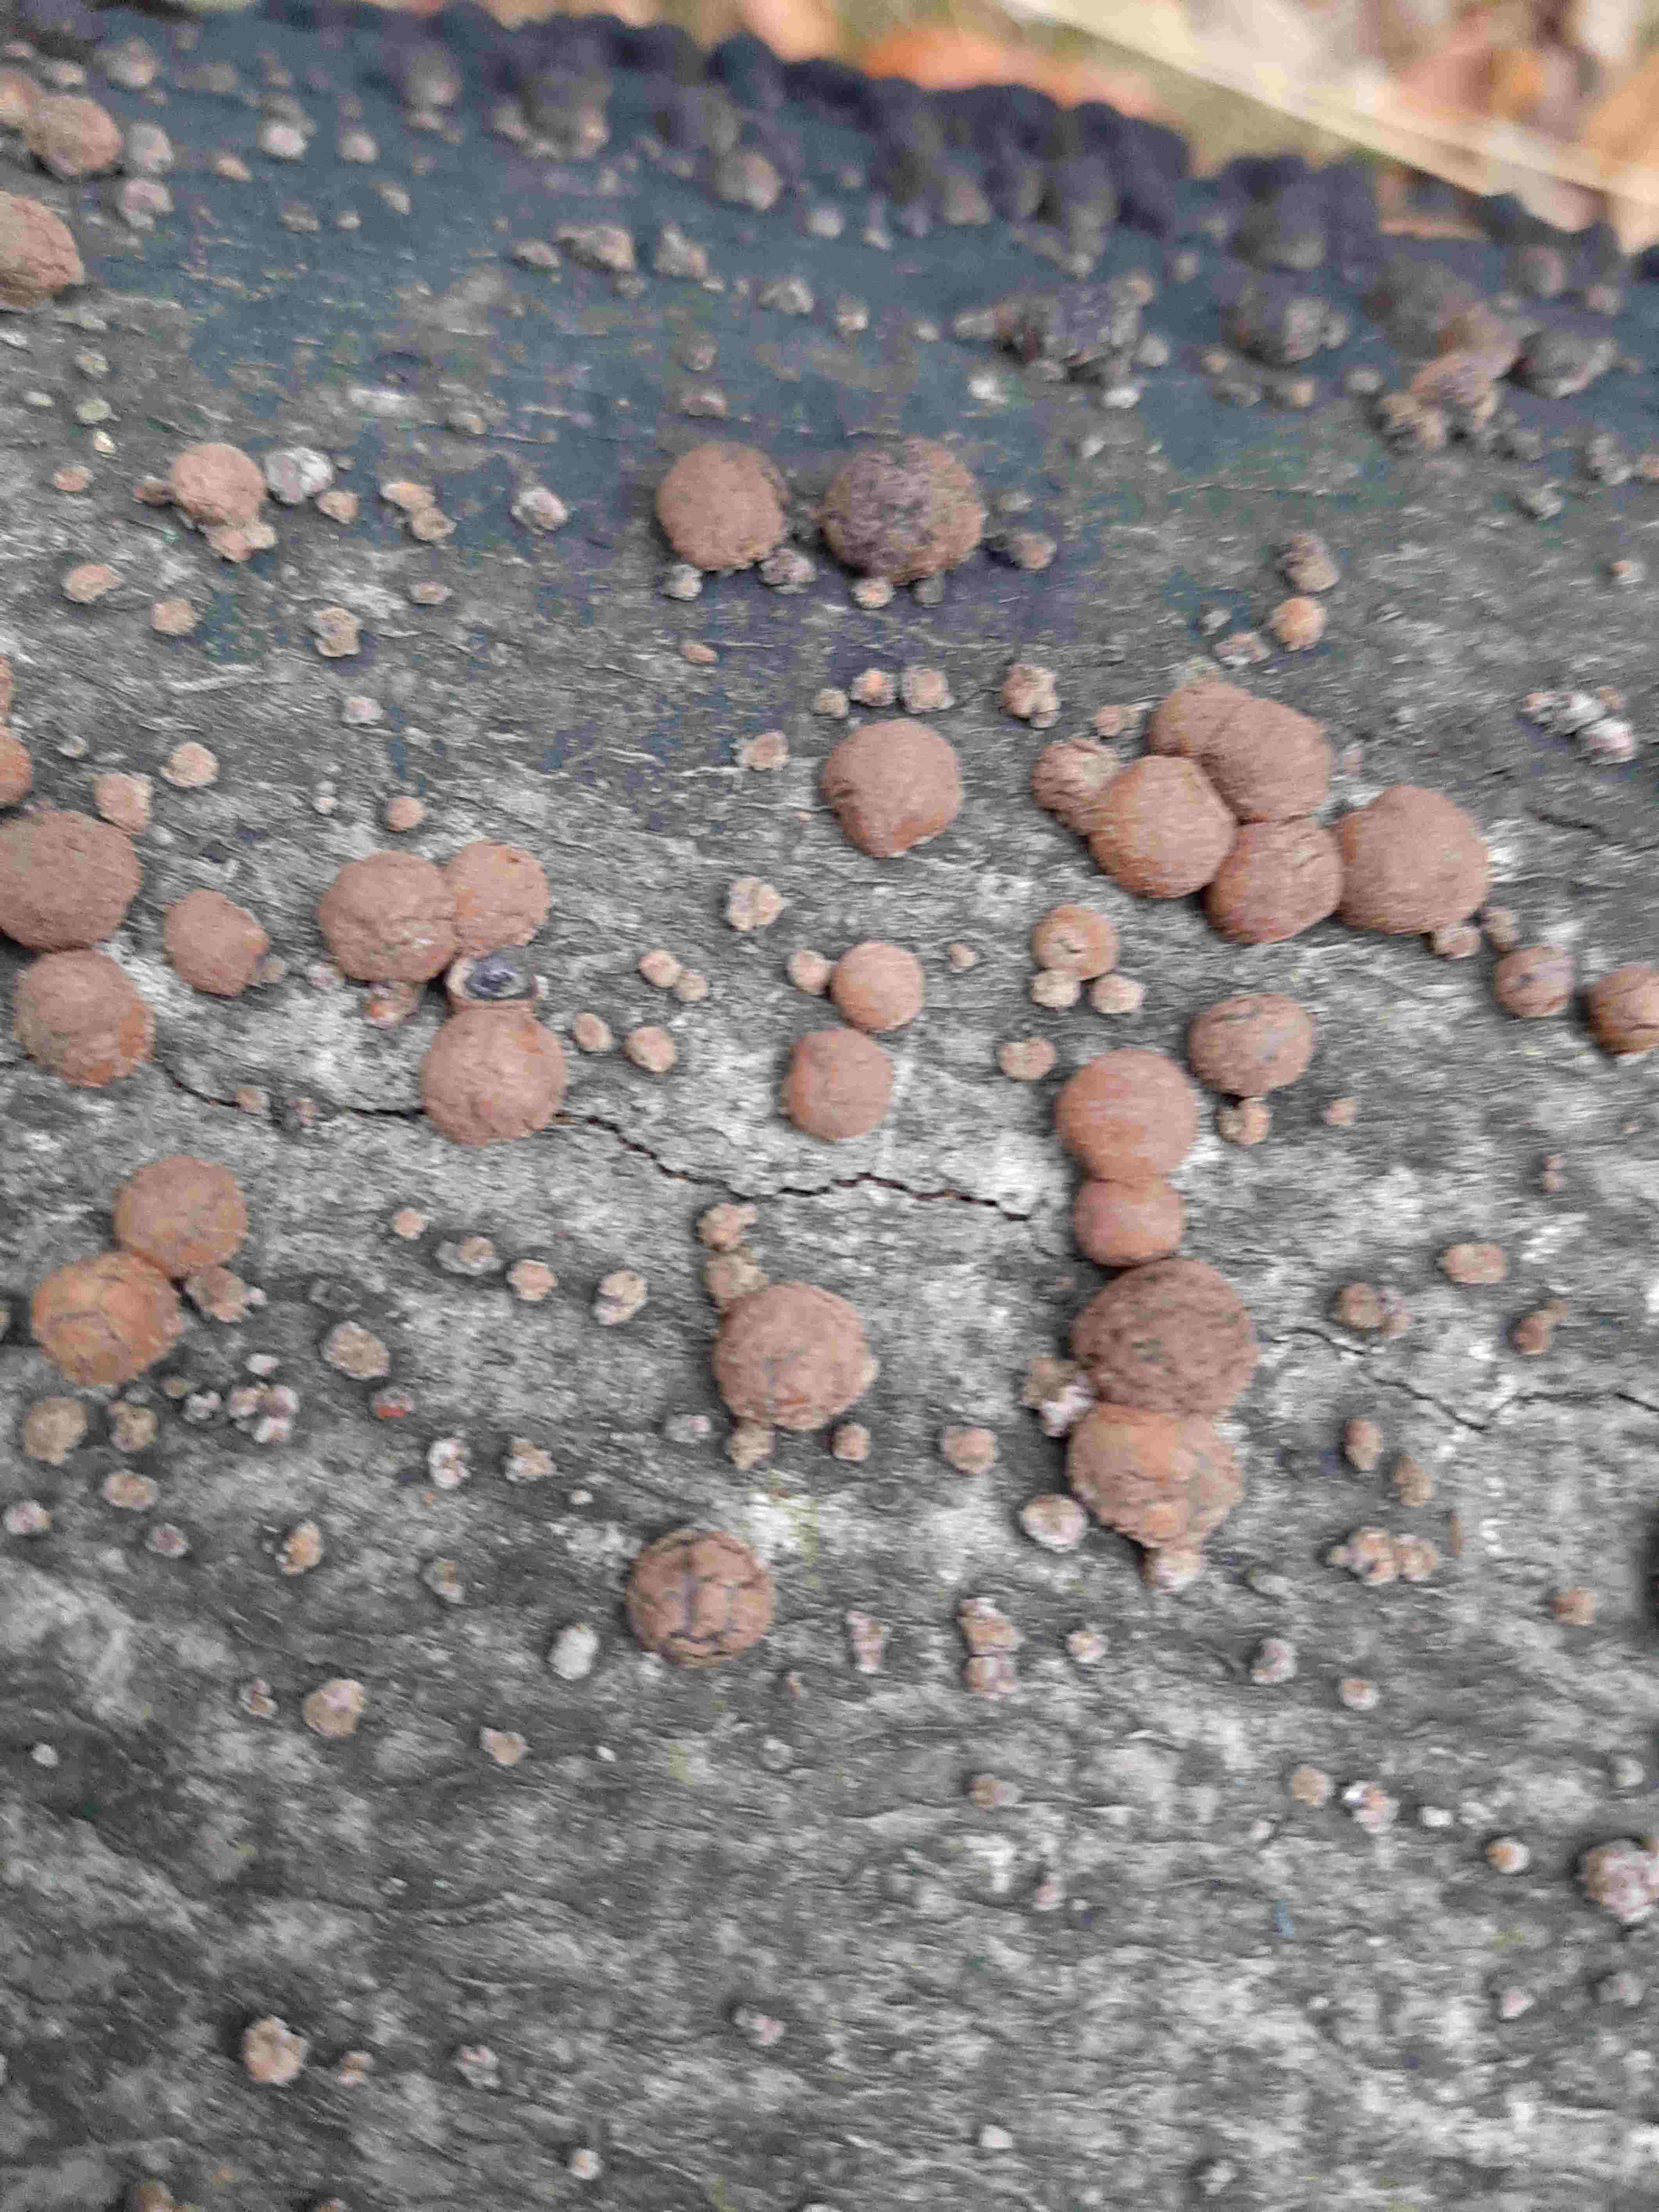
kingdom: Fungi
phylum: Ascomycota
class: Sordariomycetes
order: Xylariales
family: Hypoxylaceae
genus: Hypoxylon
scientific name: Hypoxylon fragiforme
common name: kuljordbær
